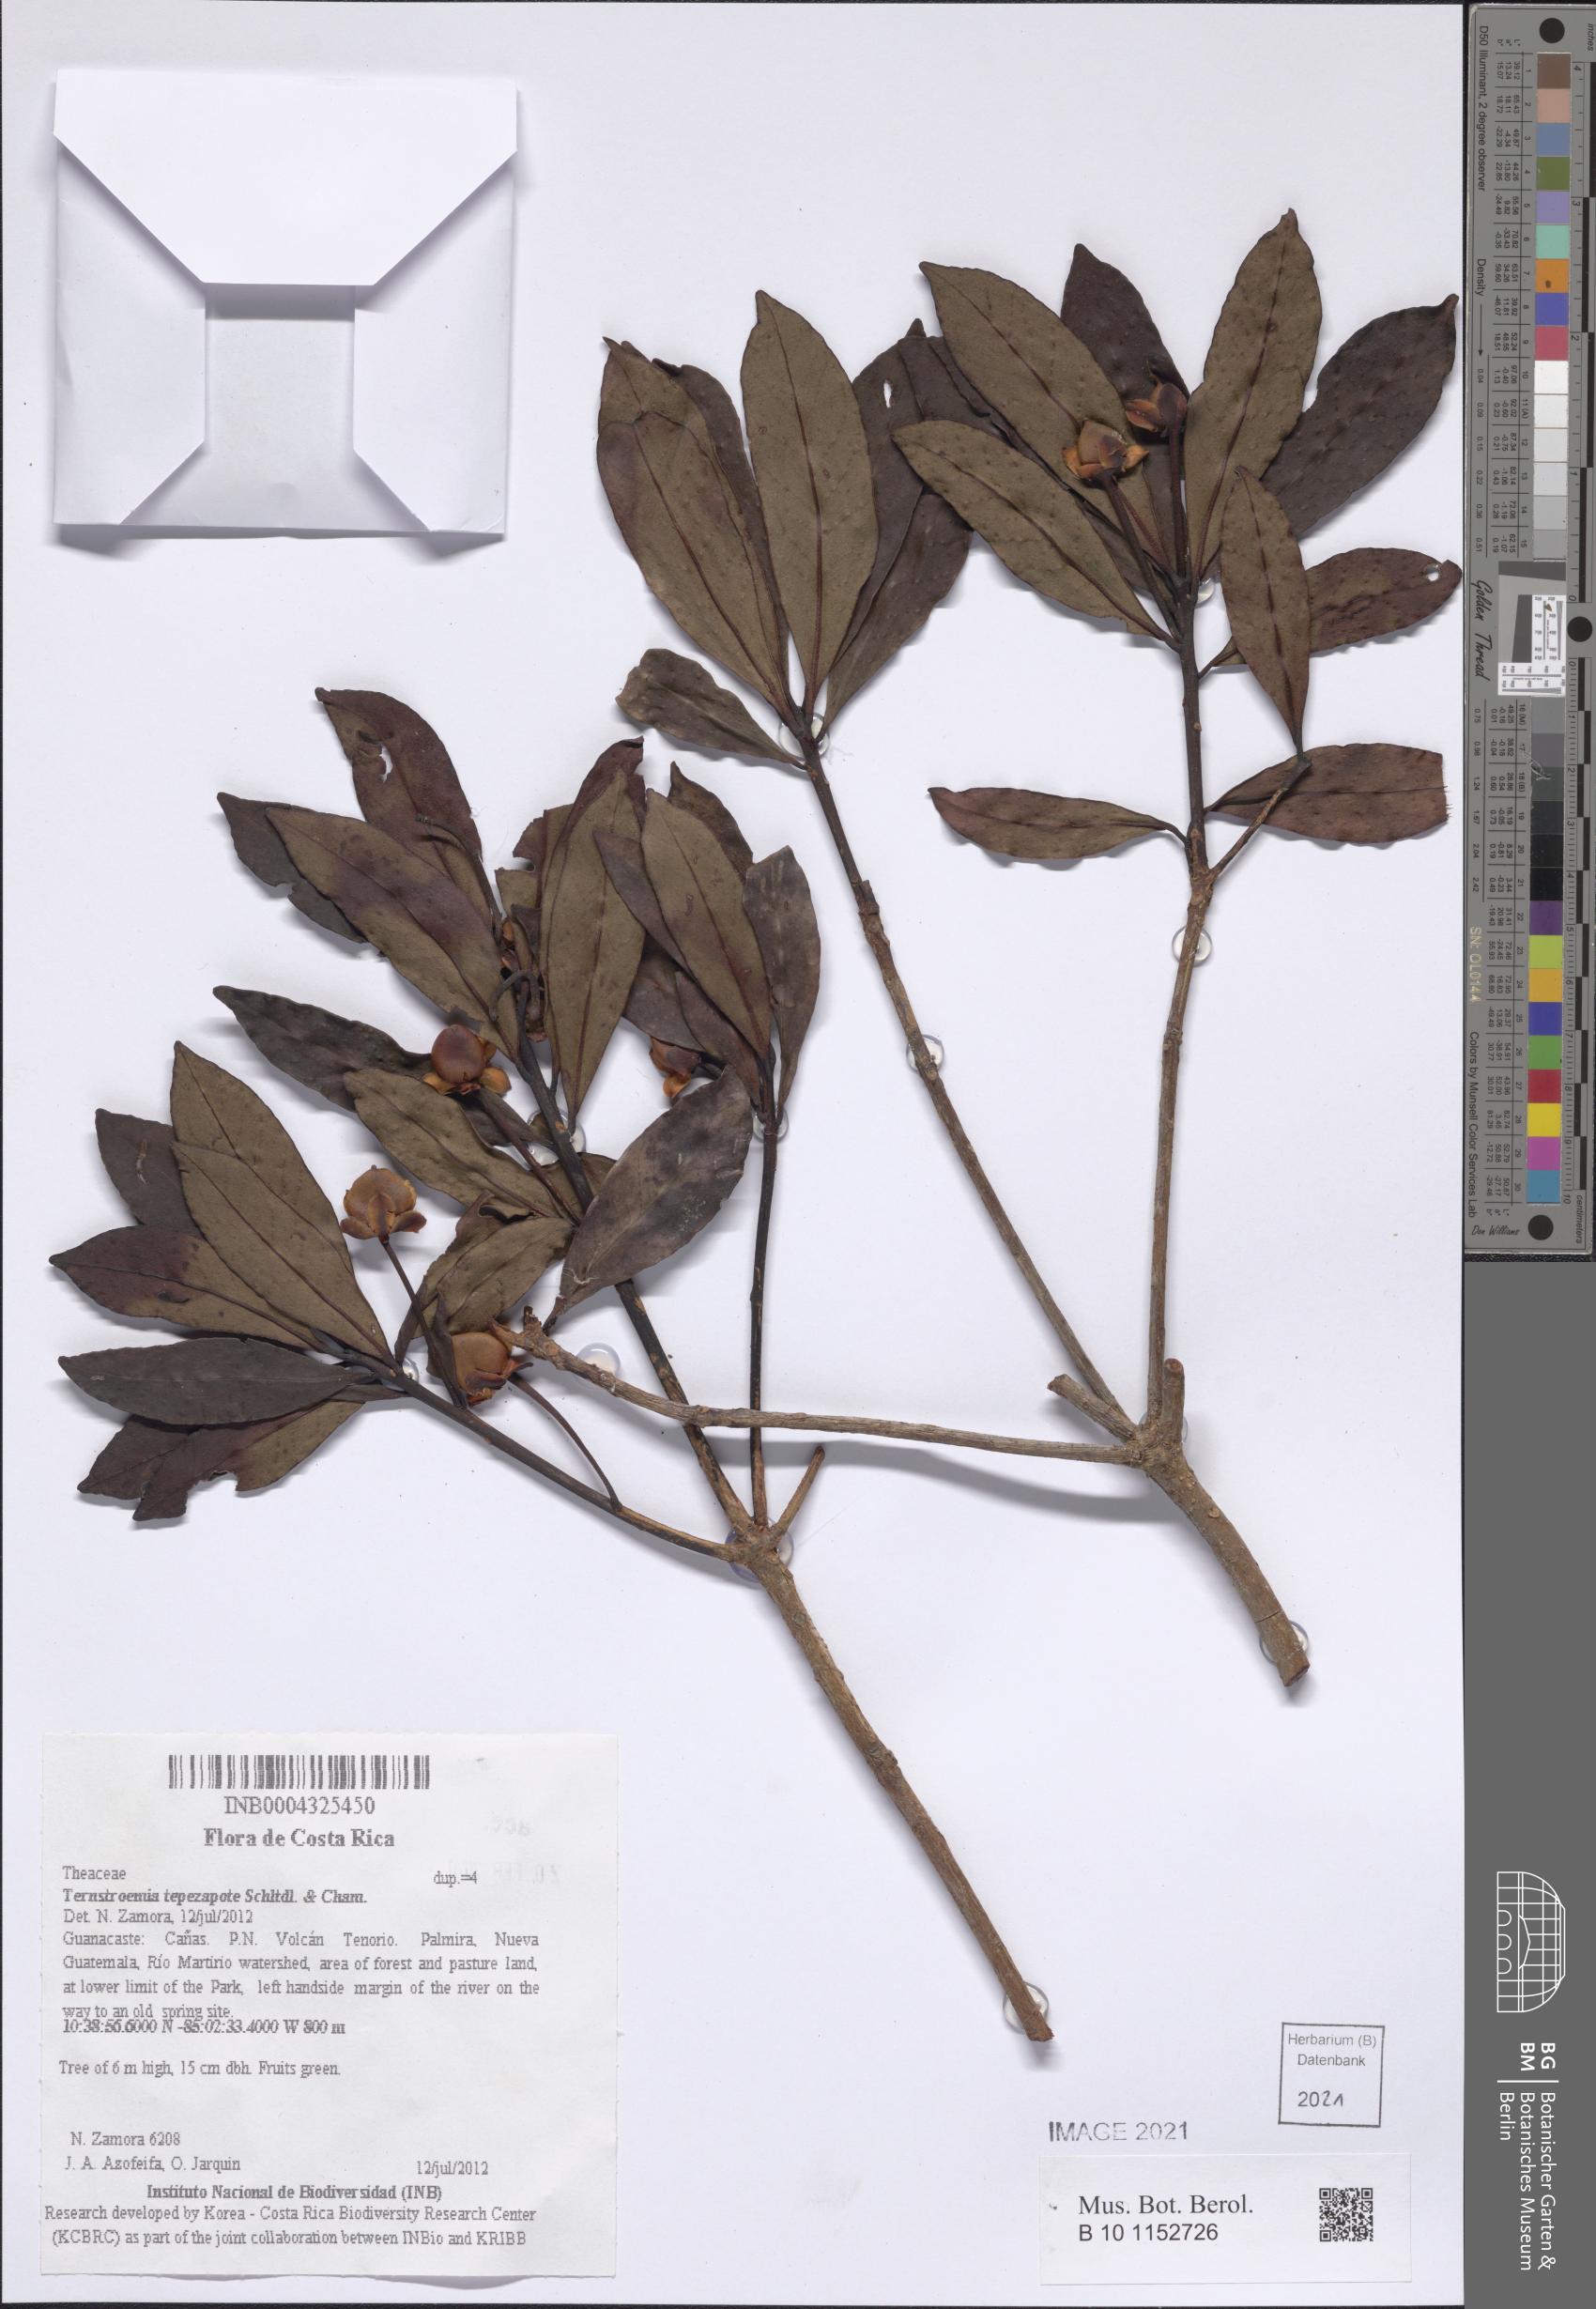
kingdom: Plantae
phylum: Tracheophyta
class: Magnoliopsida
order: Ericales
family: Pentaphylacaceae
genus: Ternstroemia
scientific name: Ternstroemia tepezapote
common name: Copey vera
